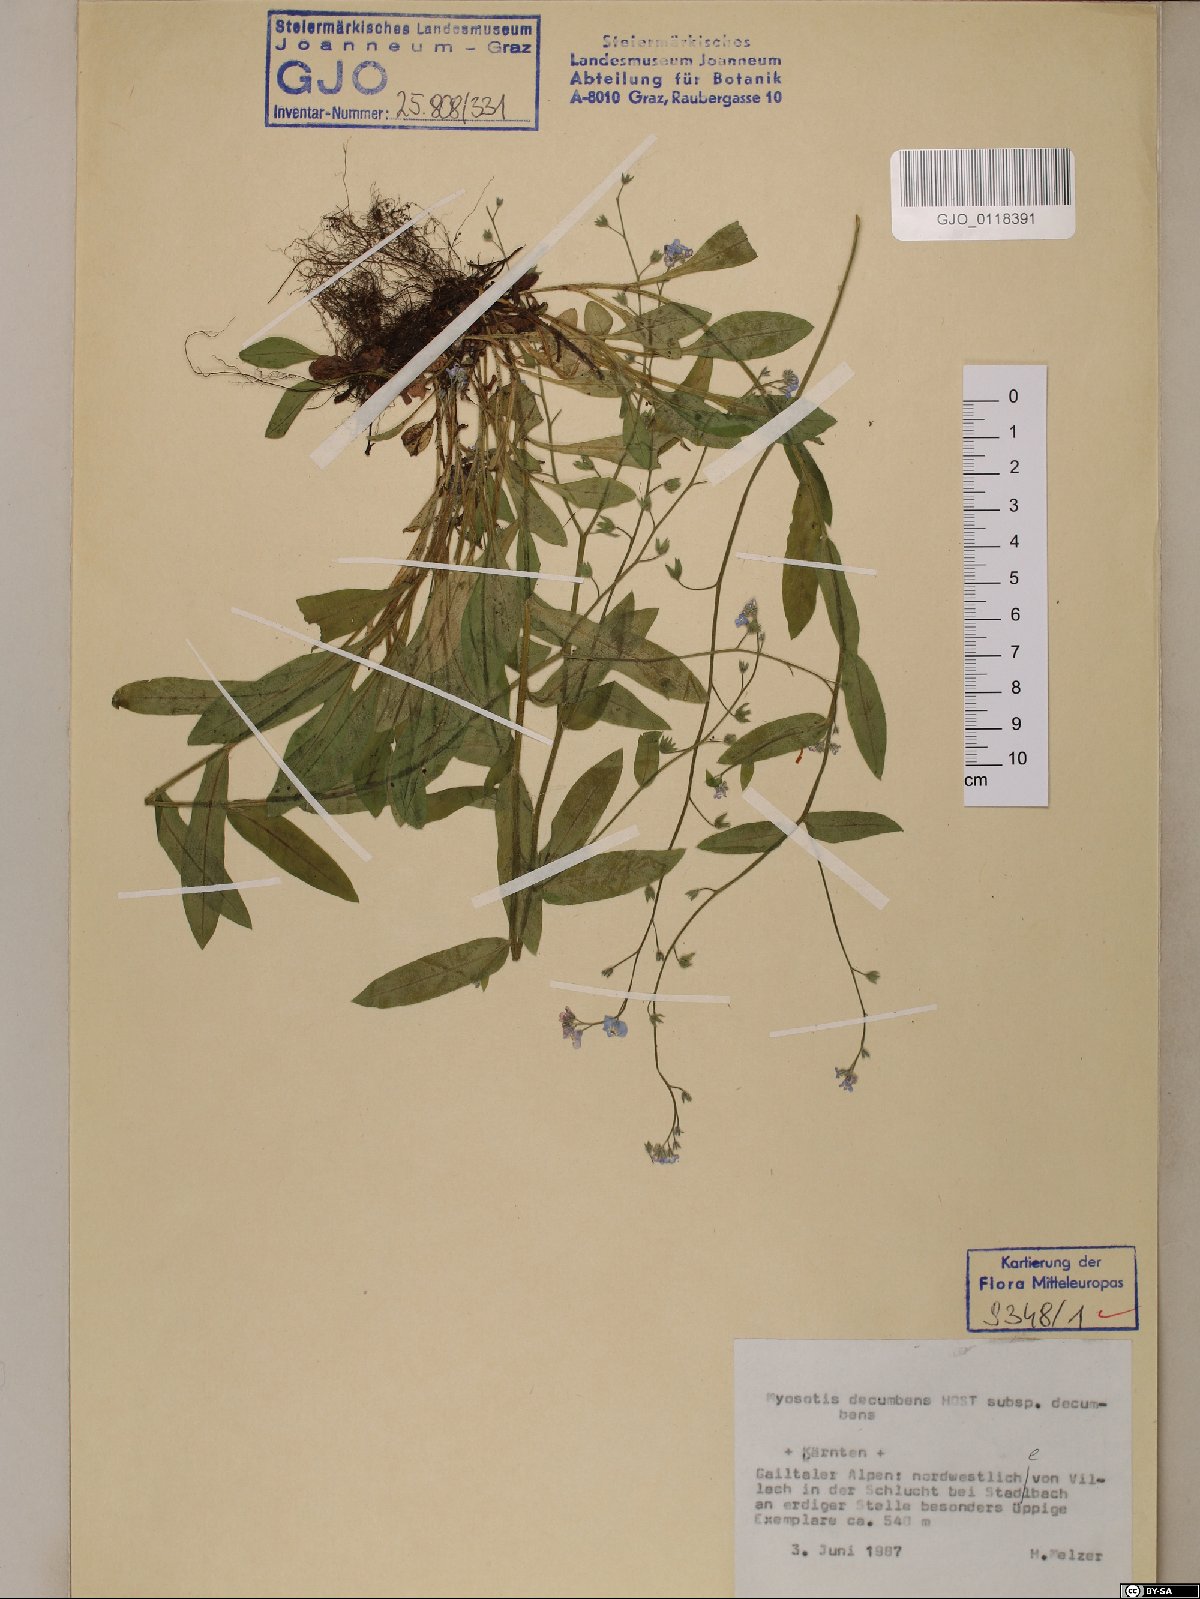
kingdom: Plantae
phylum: Tracheophyta
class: Magnoliopsida
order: Boraginales
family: Boraginaceae
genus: Myosotis
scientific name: Myosotis decumbens
